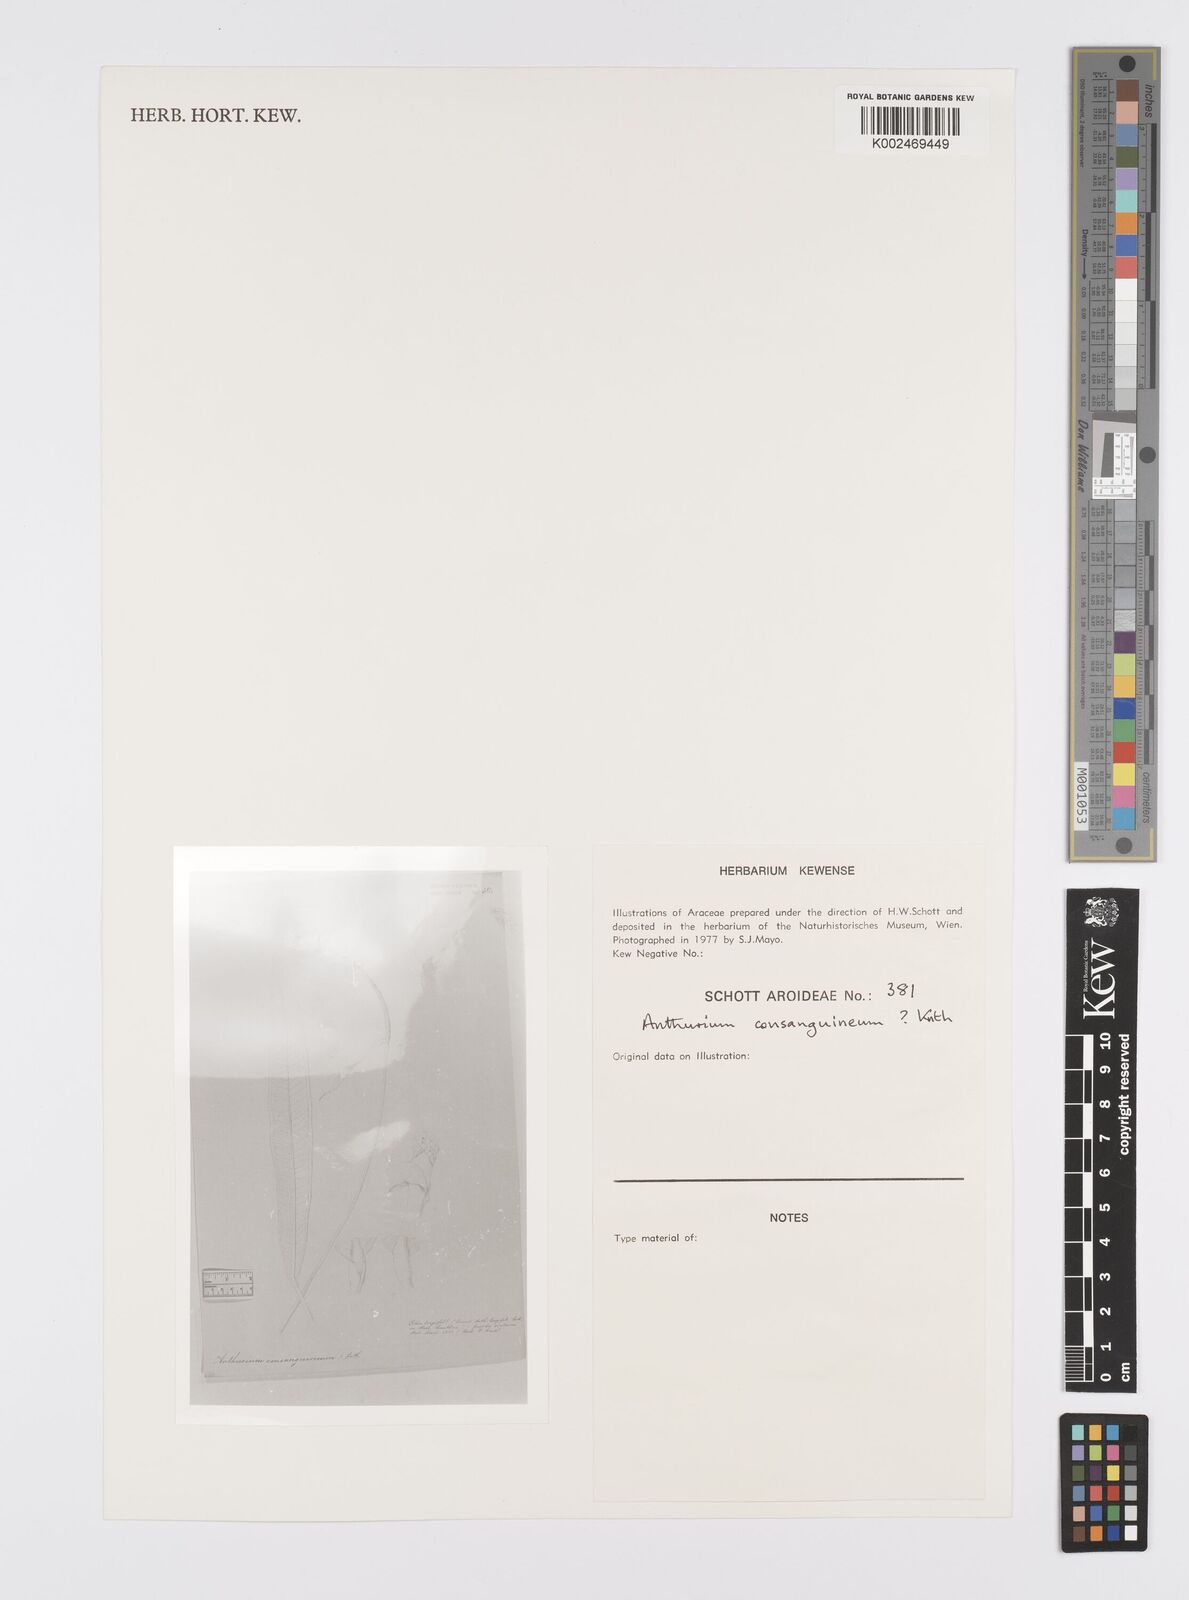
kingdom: Plantae
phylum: Tracheophyta
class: Liliopsida
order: Alismatales
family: Araceae
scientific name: Araceae
